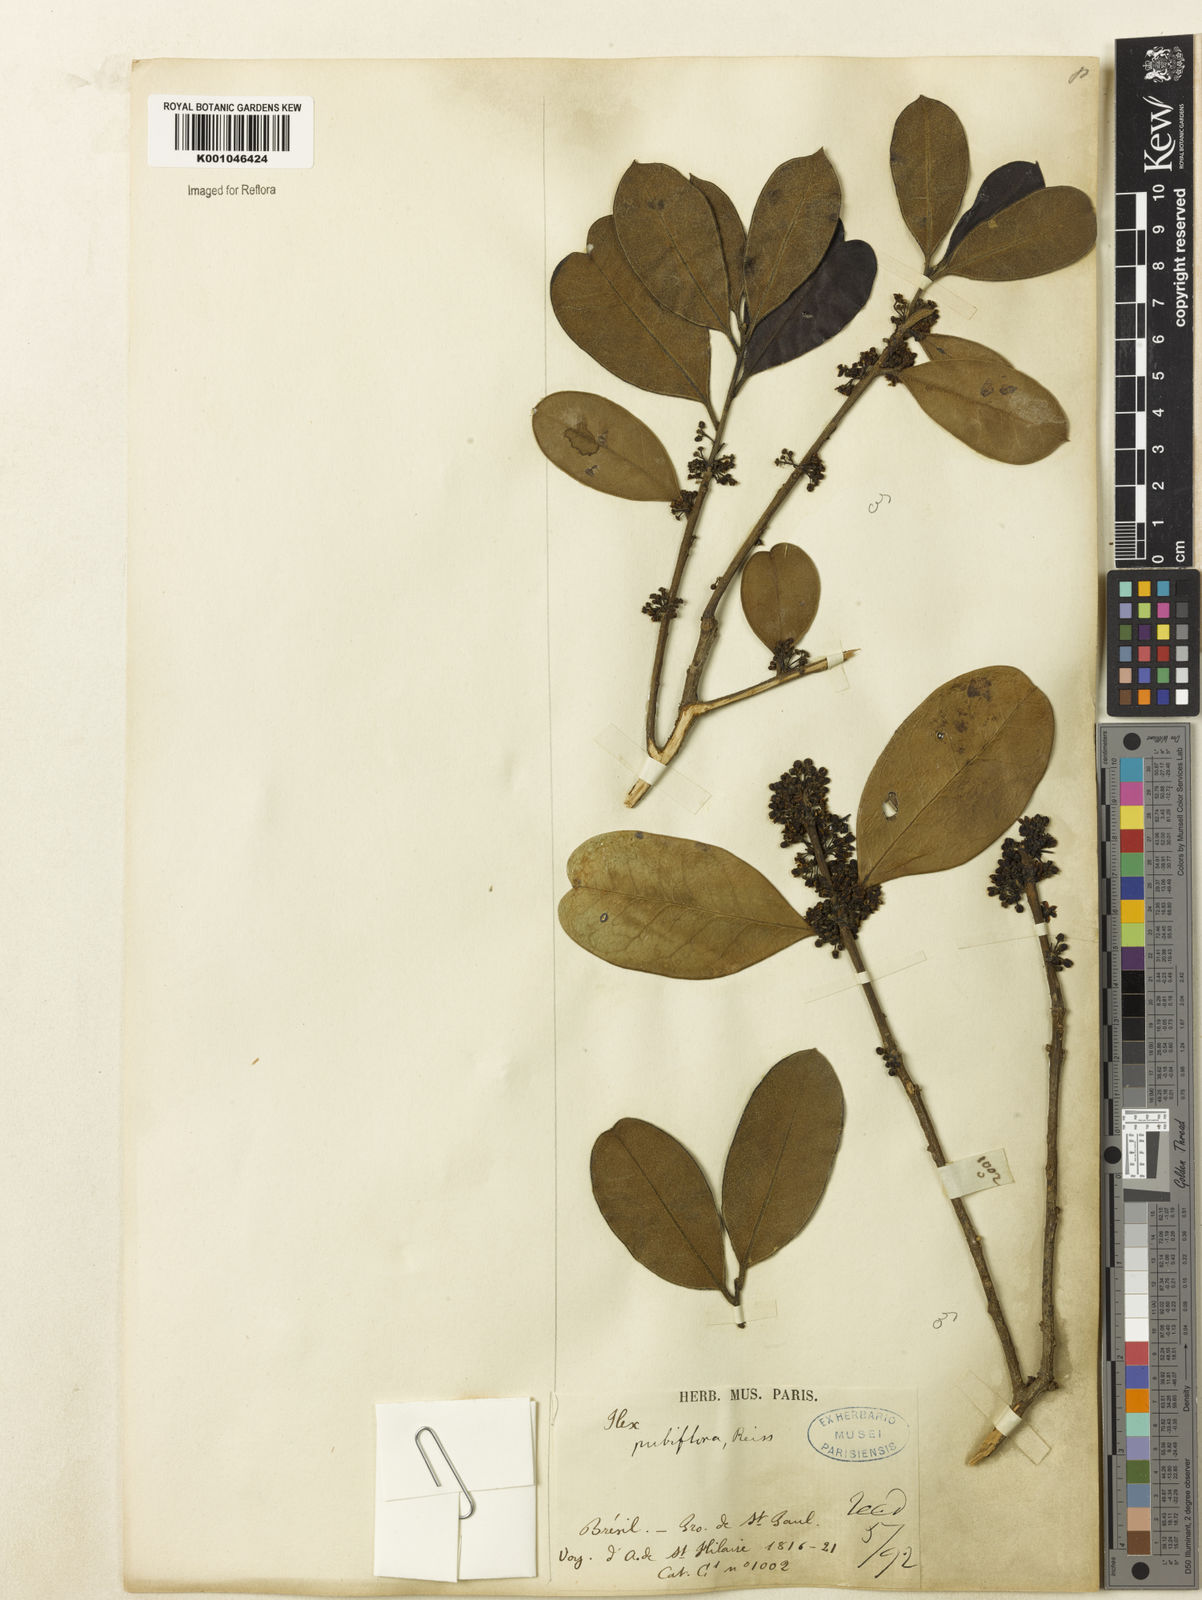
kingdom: Plantae
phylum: Tracheophyta
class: Magnoliopsida
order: Aquifoliales
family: Aquifoliaceae
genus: Ilex
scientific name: Ilex brasiliensis
